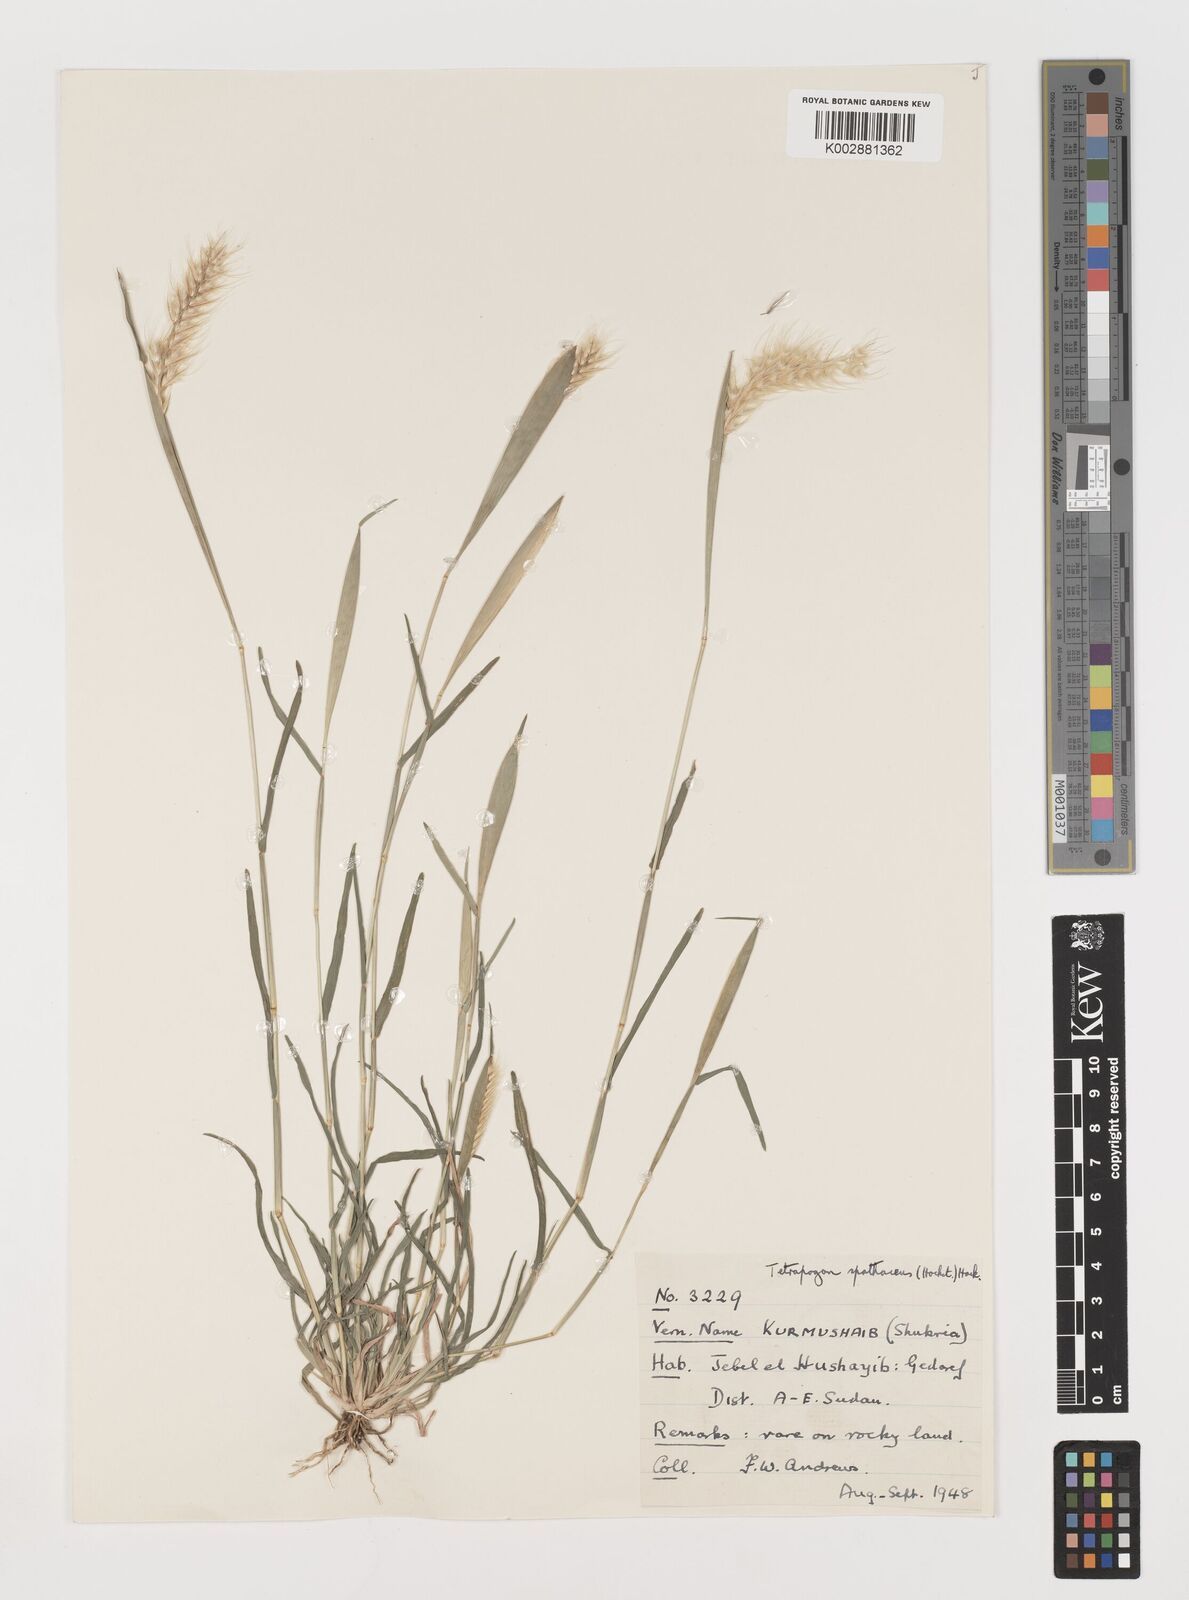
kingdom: Plantae
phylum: Tracheophyta
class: Liliopsida
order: Poales
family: Poaceae
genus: Tetrapogon
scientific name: Tetrapogon cenchriformis
